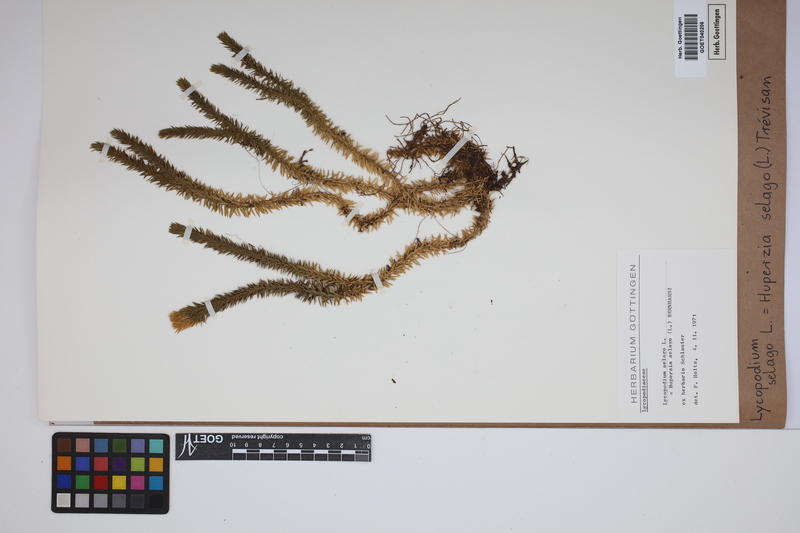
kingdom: Plantae
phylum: Tracheophyta
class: Lycopodiopsida
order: Lycopodiales
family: Lycopodiaceae
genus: Huperzia
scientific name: Huperzia selago
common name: Northern firmoss
